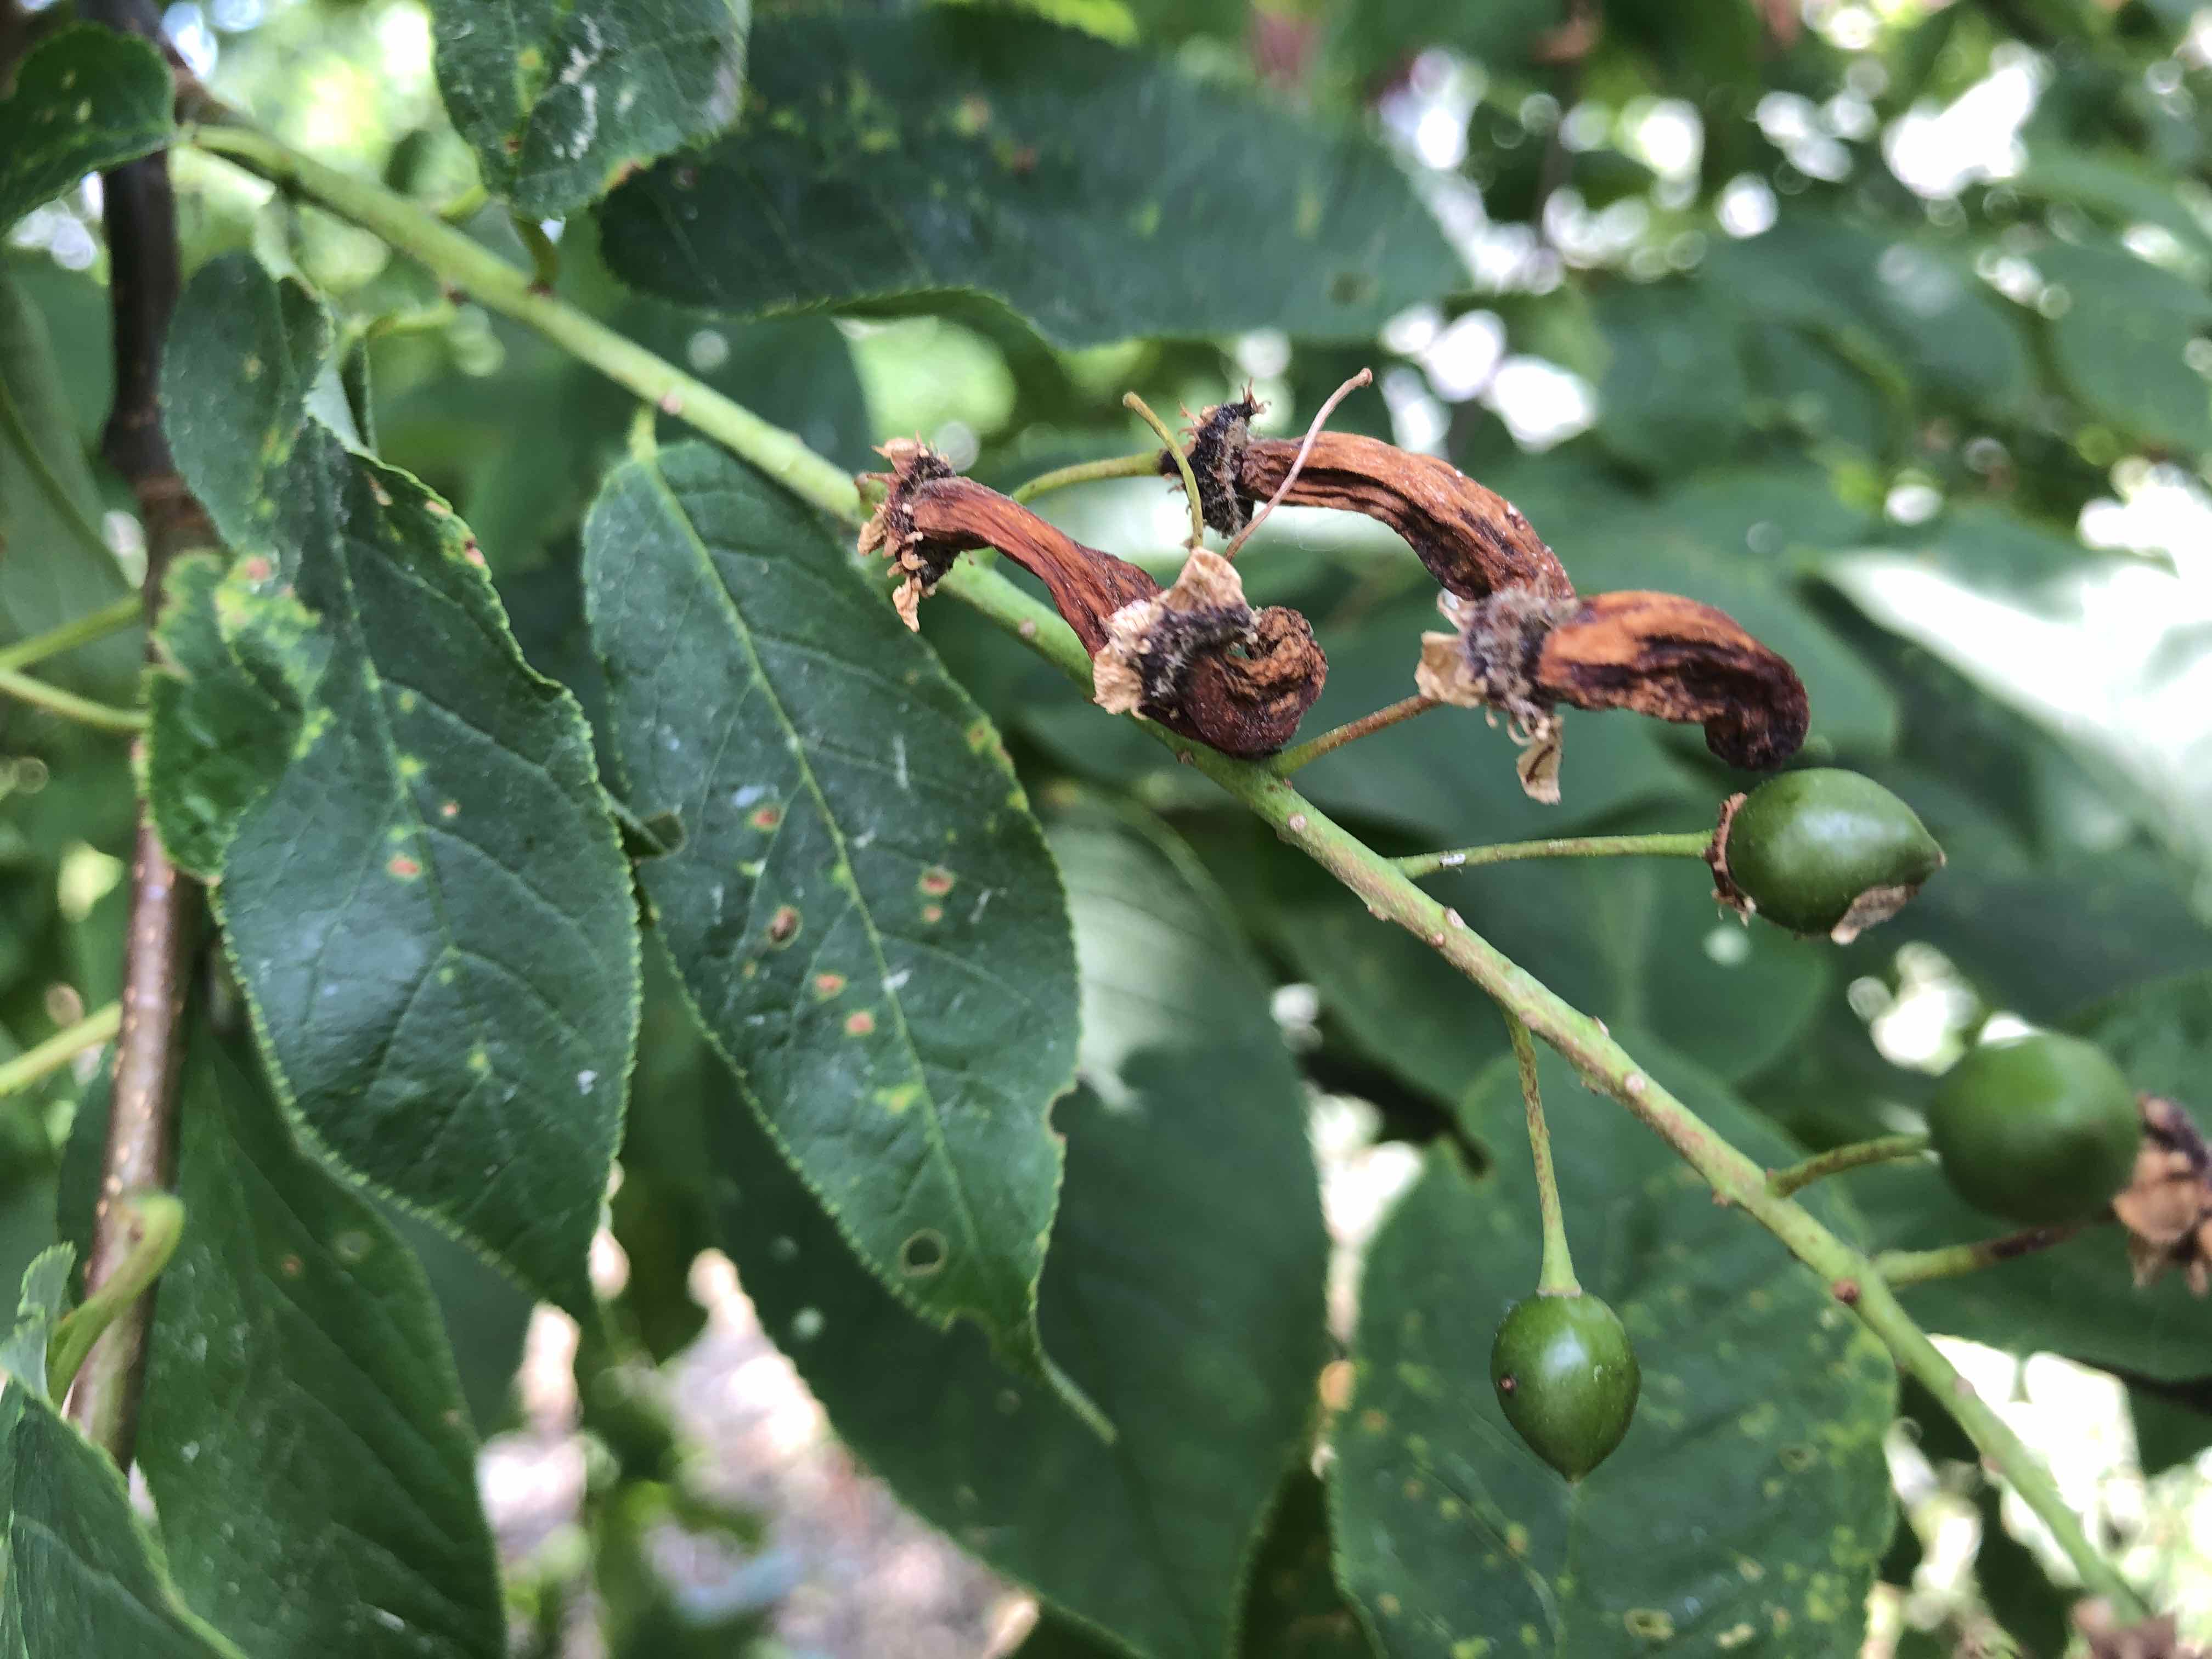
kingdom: Fungi
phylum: Ascomycota
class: Taphrinomycetes
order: Taphrinales
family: Taphrinaceae
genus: Taphrina
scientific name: Taphrina padi
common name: Bird cherry pocket
